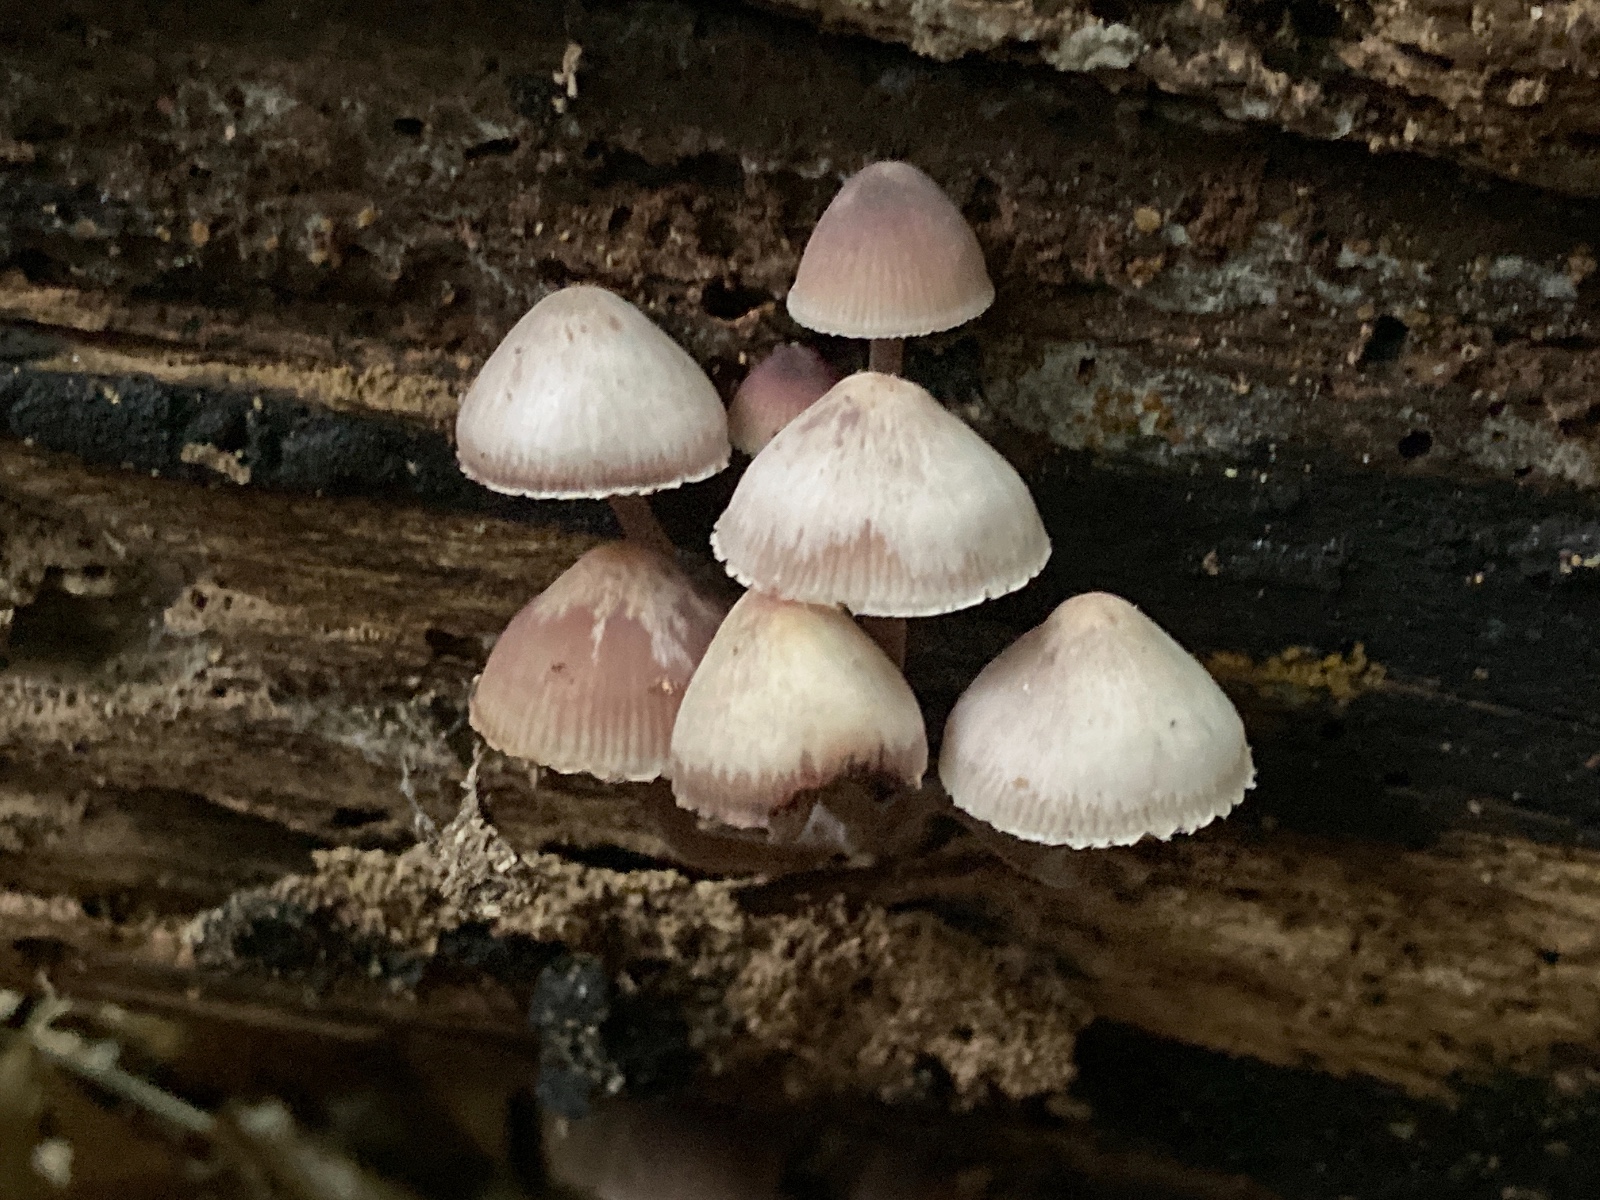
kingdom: Fungi
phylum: Basidiomycota
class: Agaricomycetes
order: Agaricales
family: Mycenaceae
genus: Mycena
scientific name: Mycena haematopus
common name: blødende huesvamp
